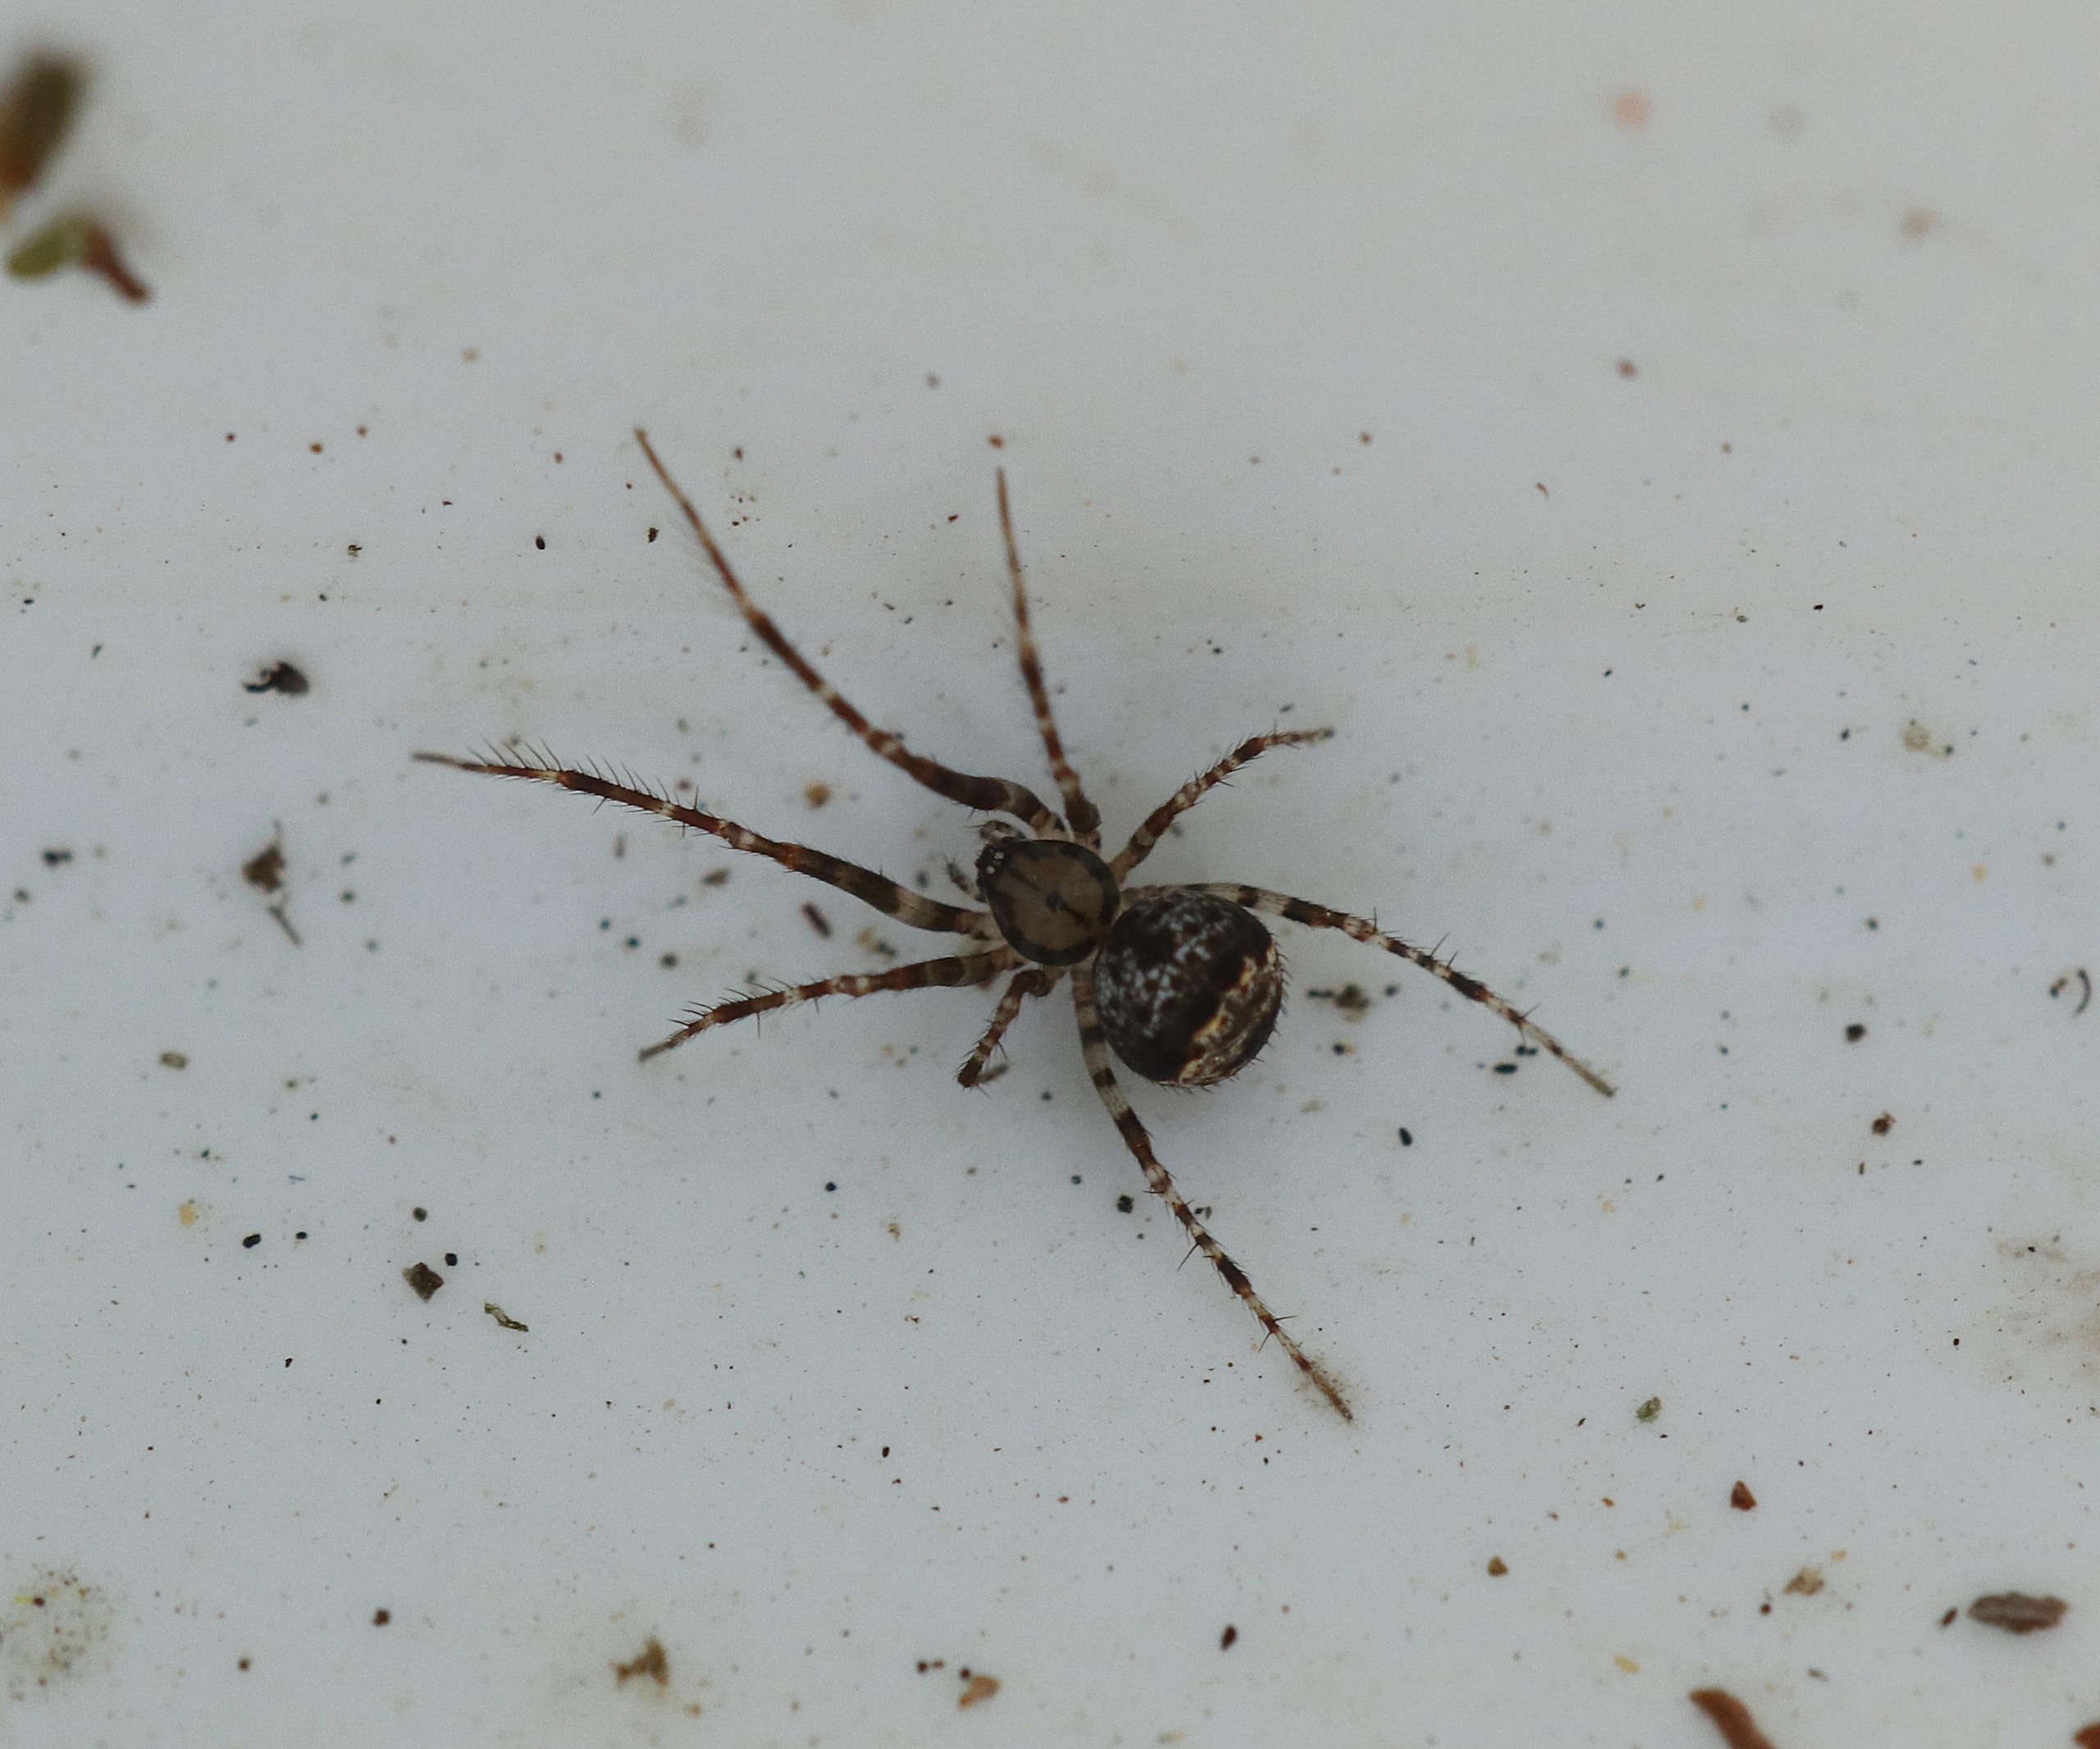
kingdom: Animalia
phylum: Arthropoda
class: Arachnida
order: Araneae
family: Mimetidae
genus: Ero
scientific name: Ero
